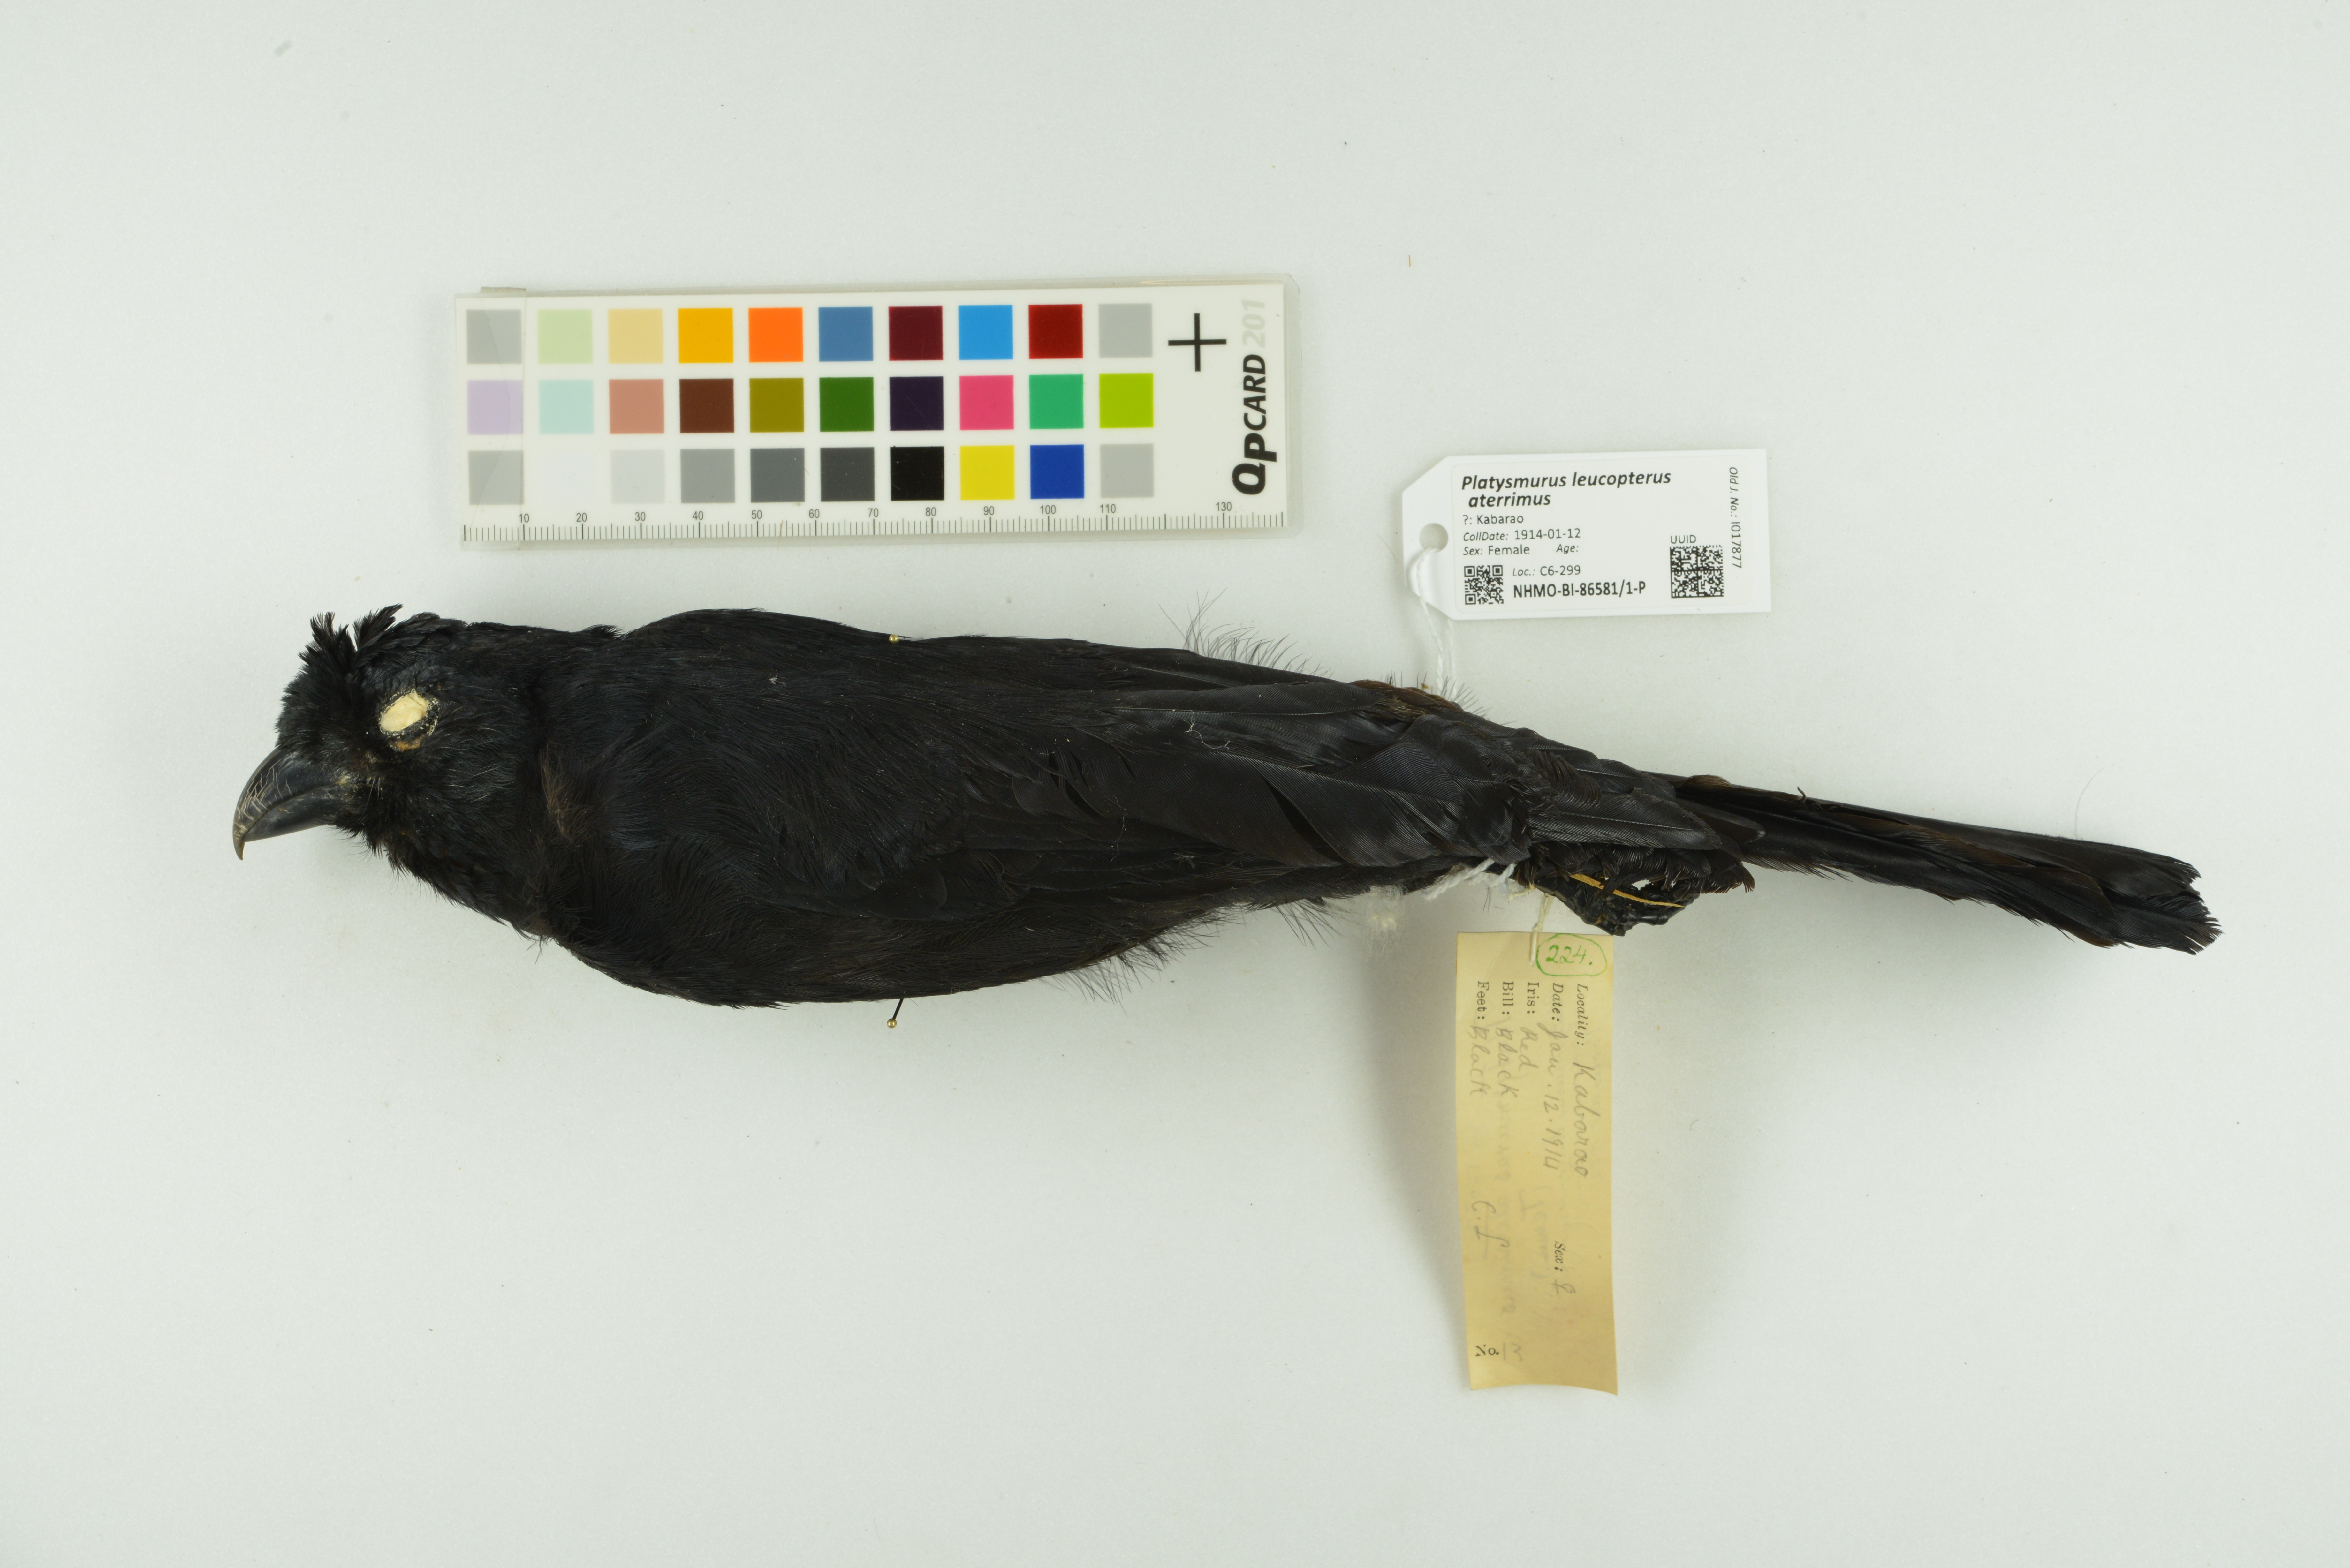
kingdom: Animalia
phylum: Chordata
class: Aves
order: Passeriformes
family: Corvidae
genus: Platysmurus
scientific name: Platysmurus leucopterus
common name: Black magpie
